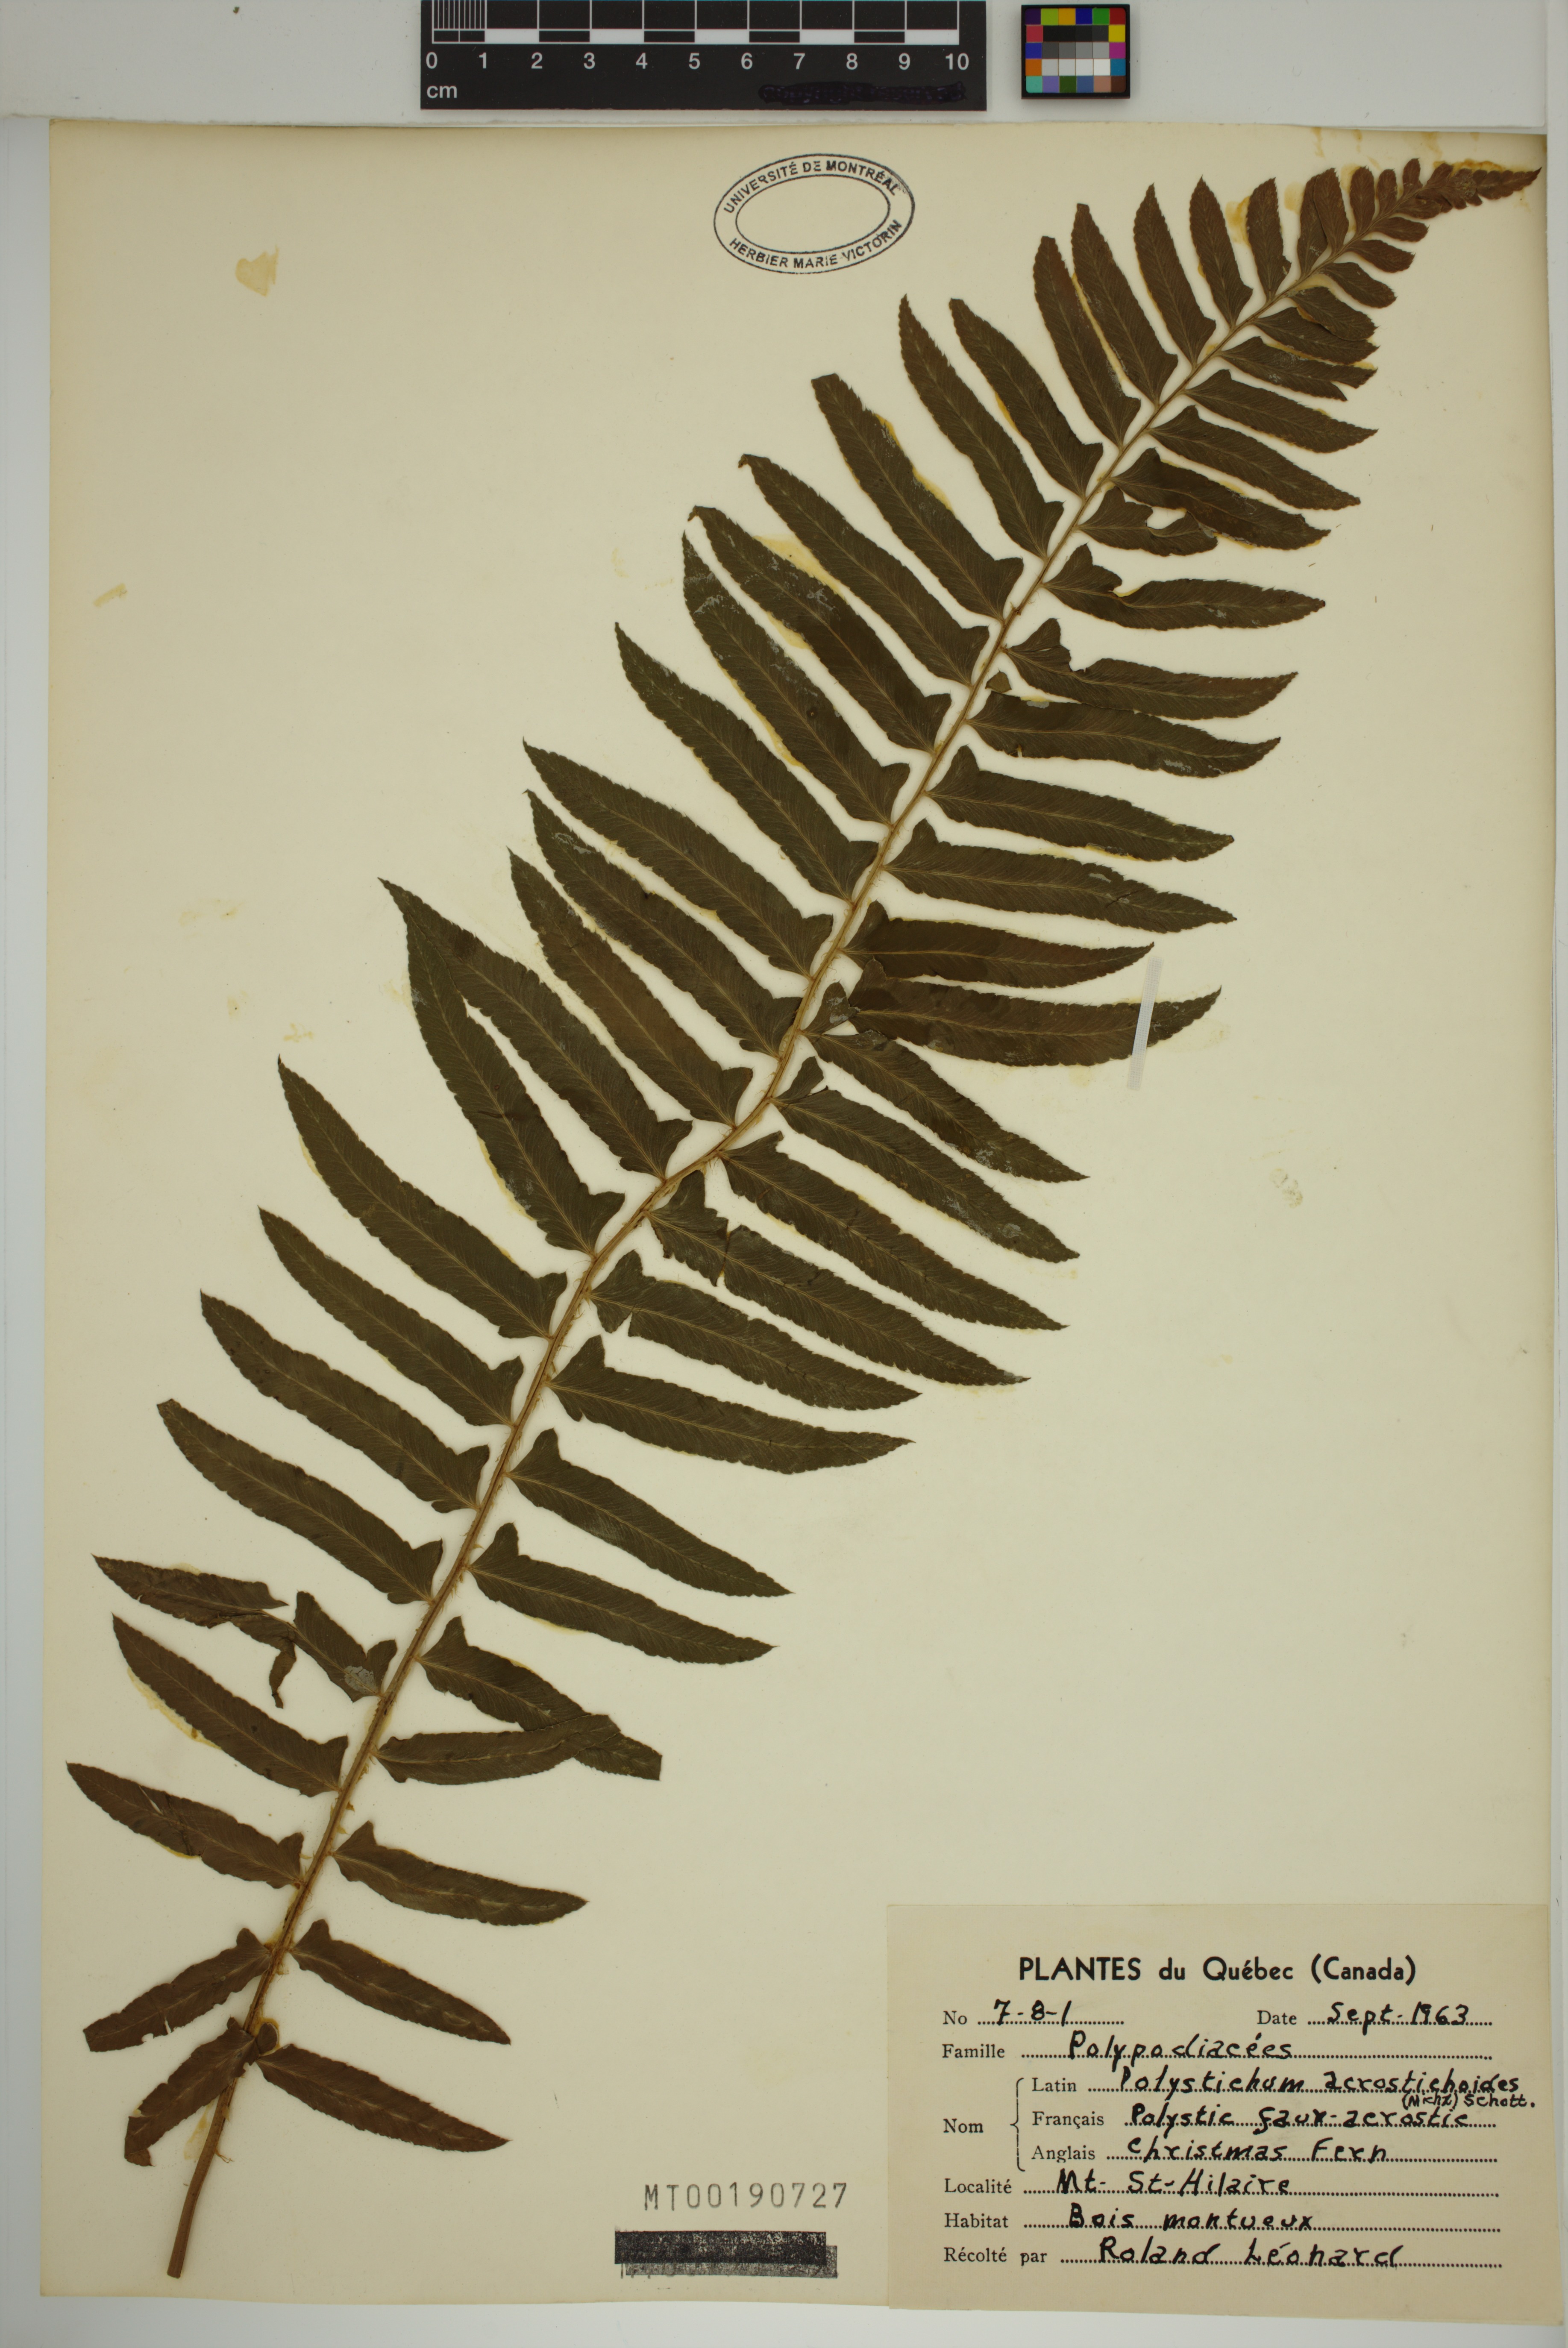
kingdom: Plantae
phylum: Tracheophyta
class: Polypodiopsida
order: Polypodiales
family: Dryopteridaceae
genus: Polystichum
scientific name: Polystichum acrostichoides
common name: Christmas fern
